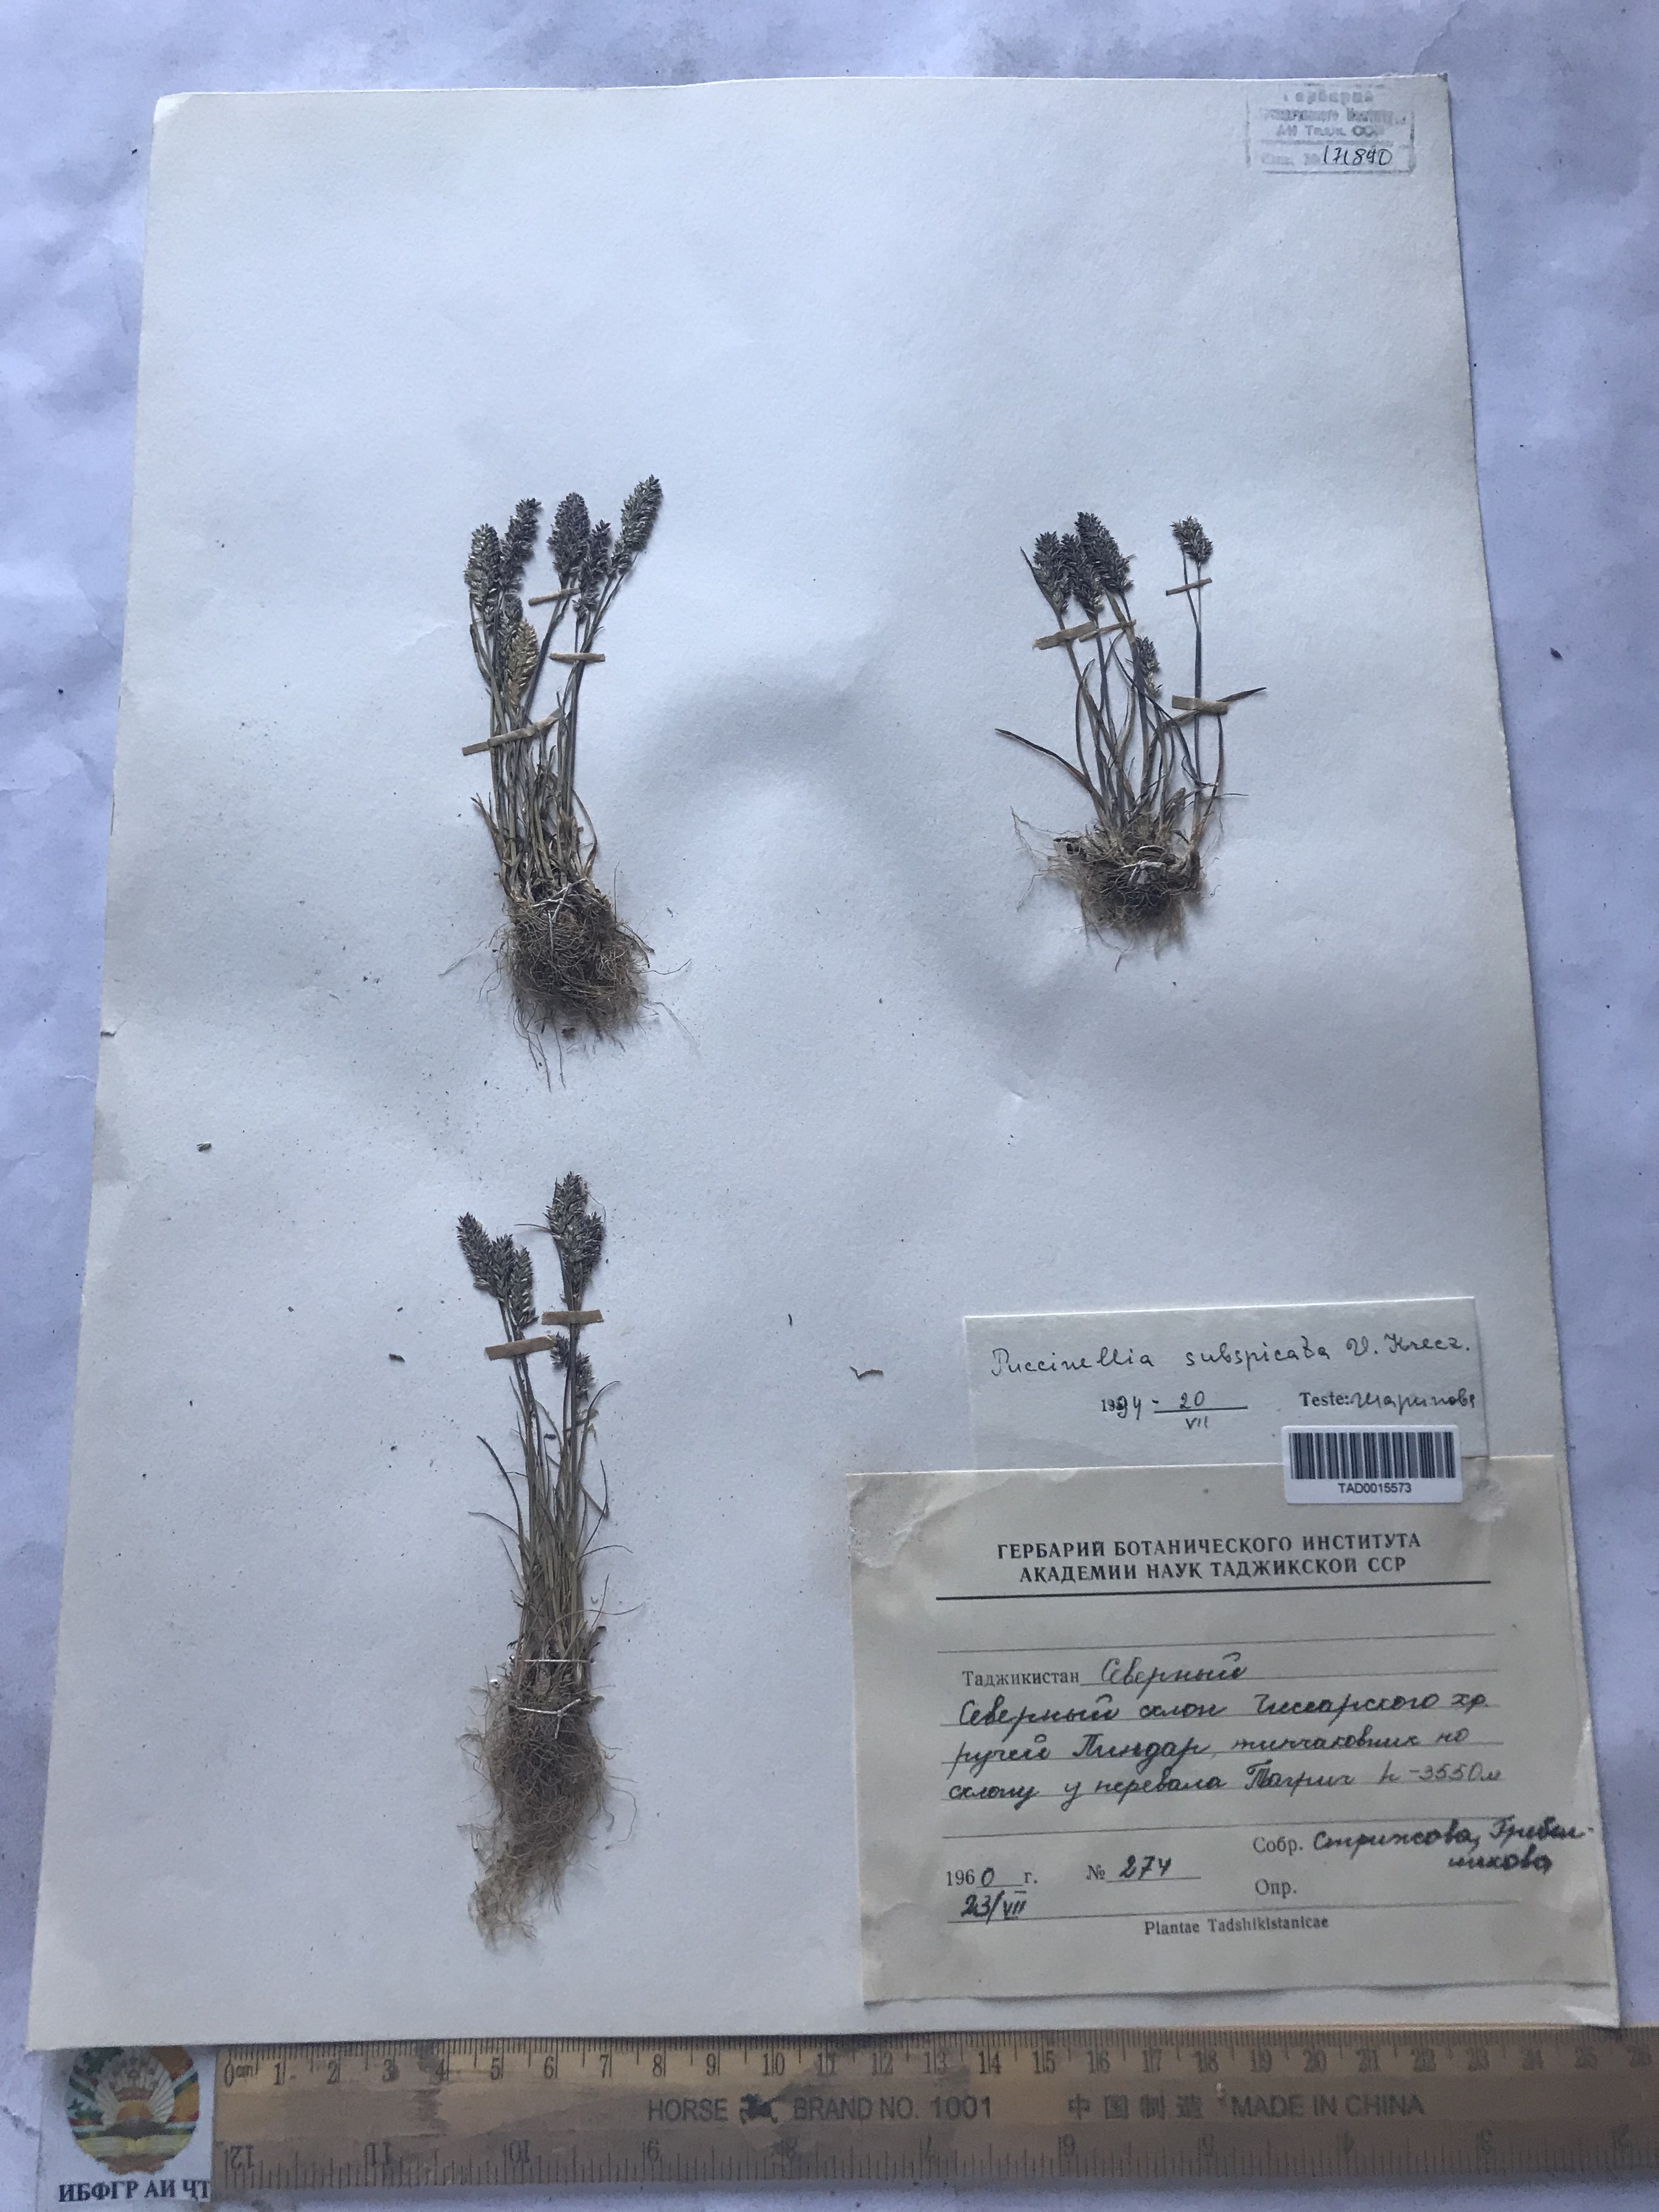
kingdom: Plantae
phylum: Tracheophyta
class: Liliopsida
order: Poales
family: Poaceae
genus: Puccinellia
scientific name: Puccinellia subspicata
